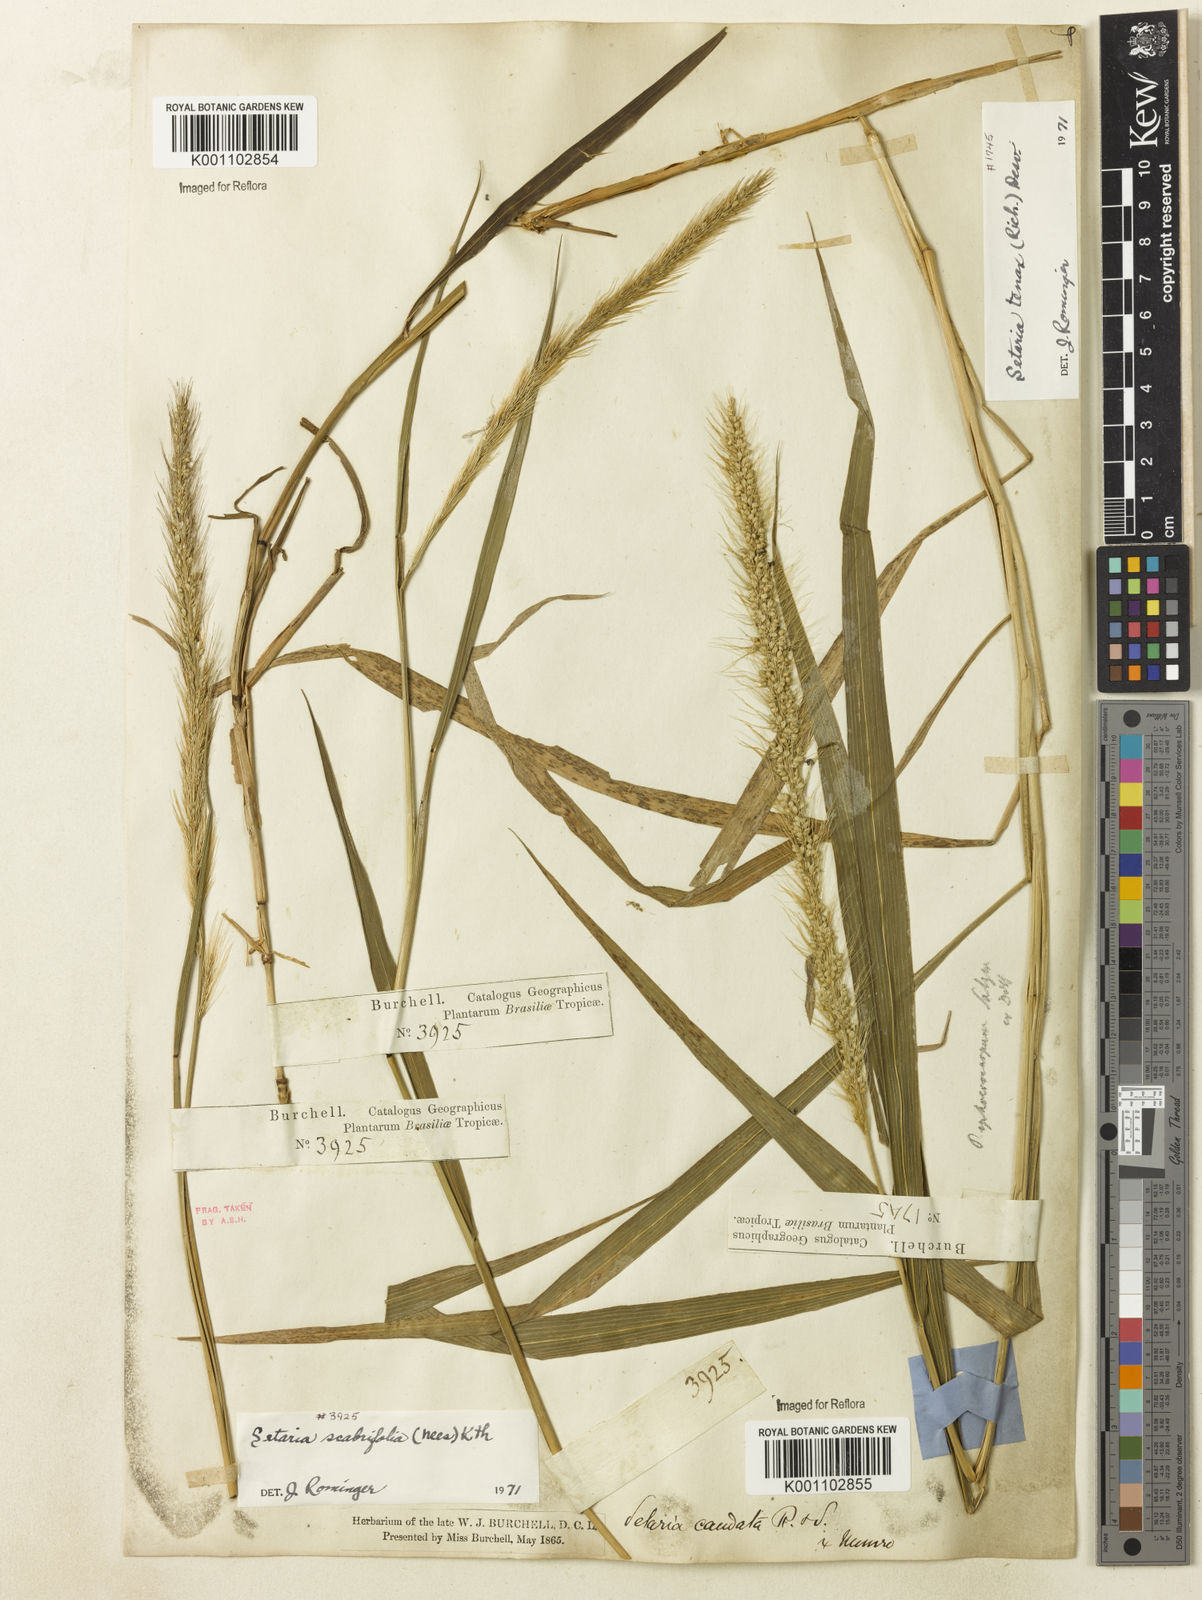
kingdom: Plantae
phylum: Tracheophyta
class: Liliopsida
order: Poales
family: Poaceae
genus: Setaria
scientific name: Setaria scabrifolia
